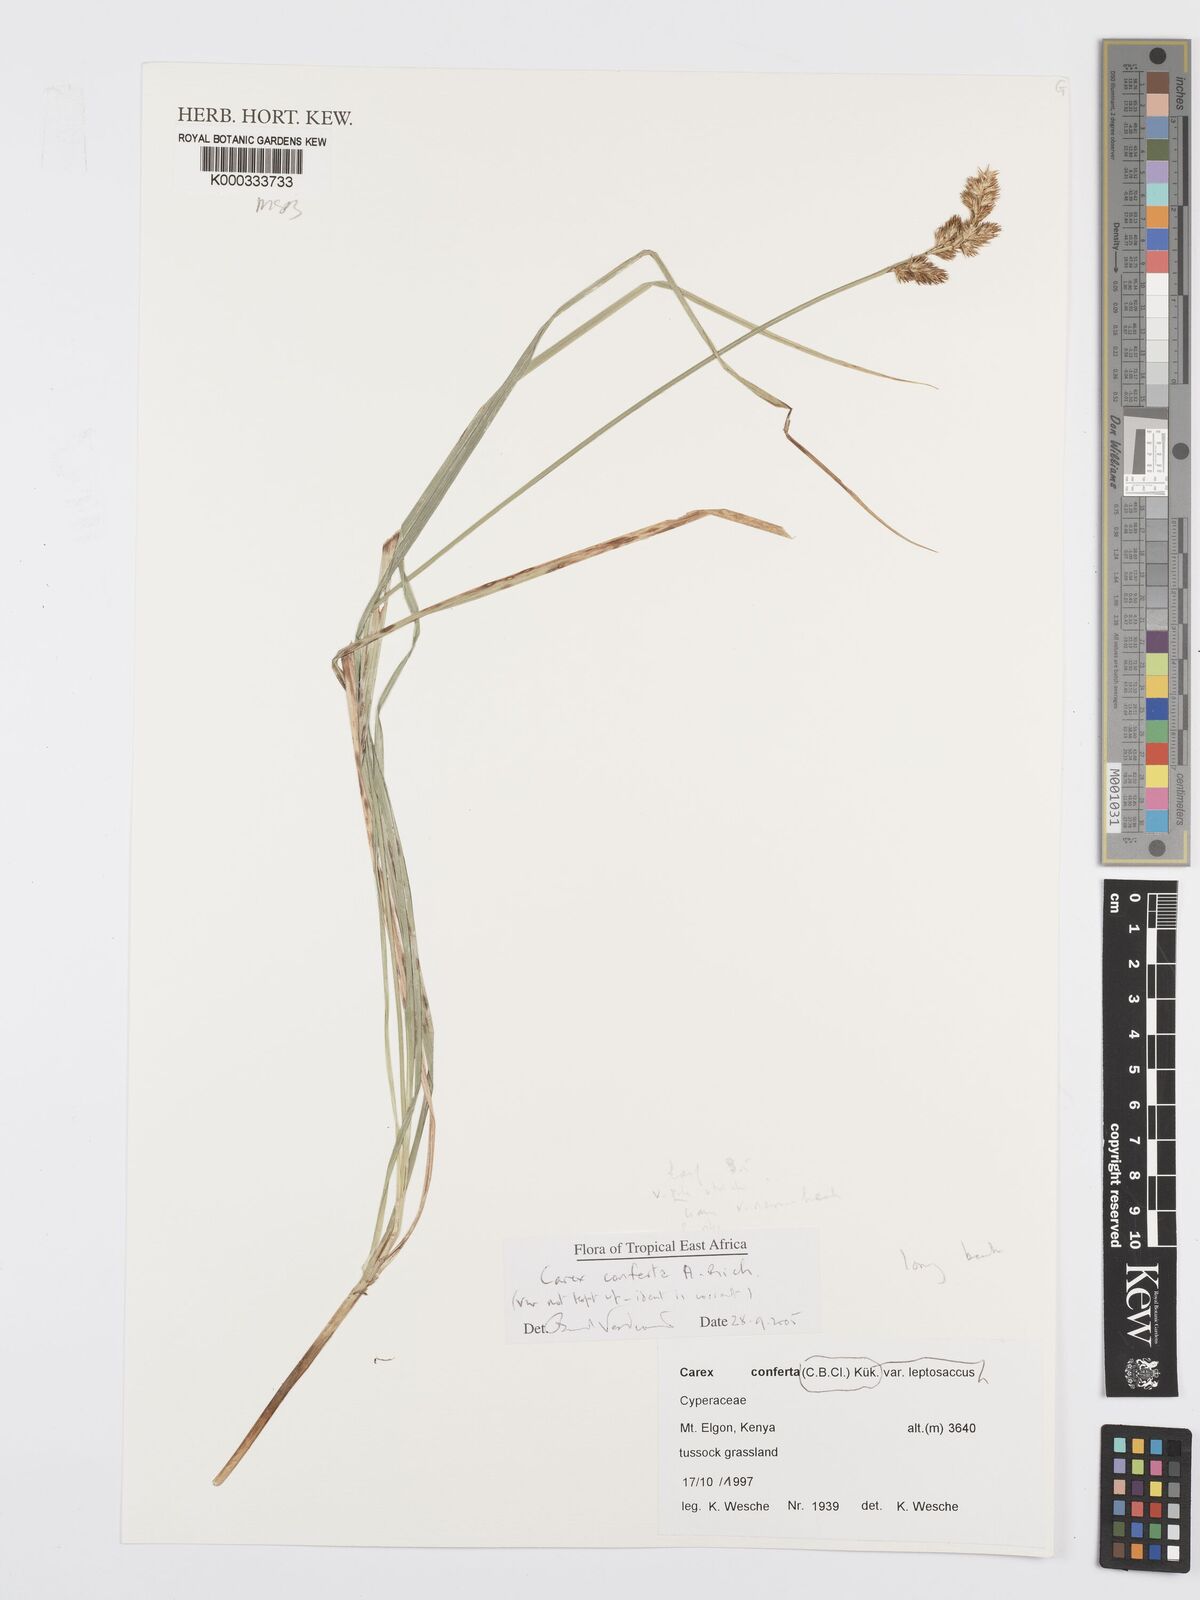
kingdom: Plantae
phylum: Tracheophyta
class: Liliopsida
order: Poales
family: Cyperaceae
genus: Carex
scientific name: Carex conferta
